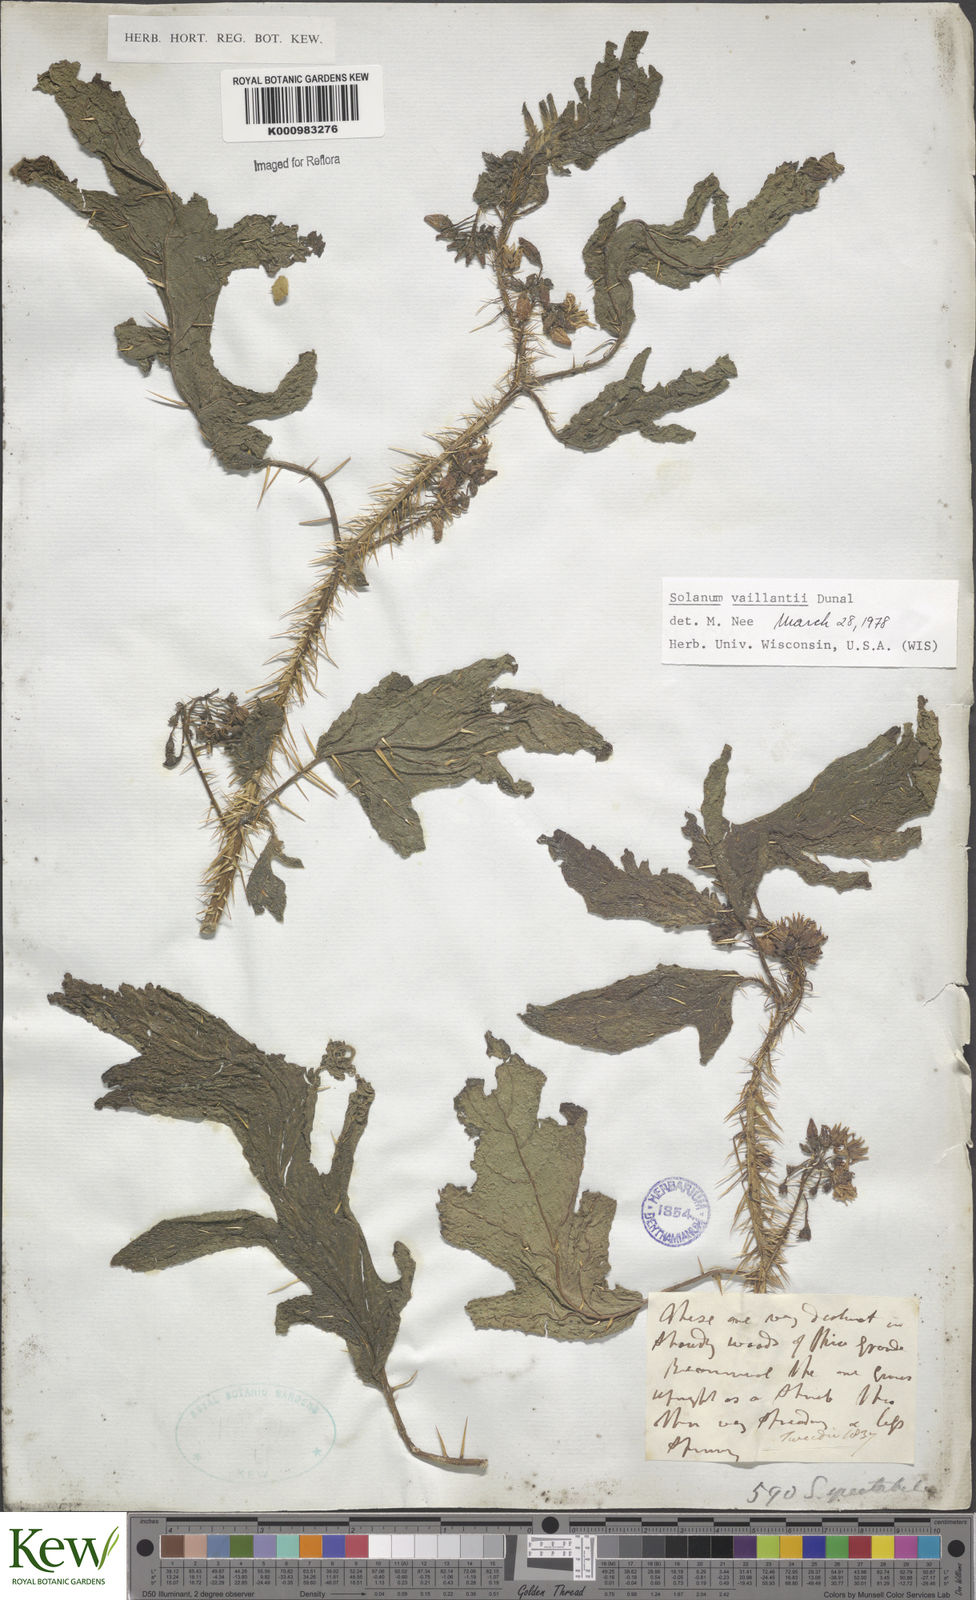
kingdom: Plantae
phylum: Tracheophyta
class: Magnoliopsida
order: Solanales
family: Solanaceae
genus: Solanum
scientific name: Solanum vaillantii
